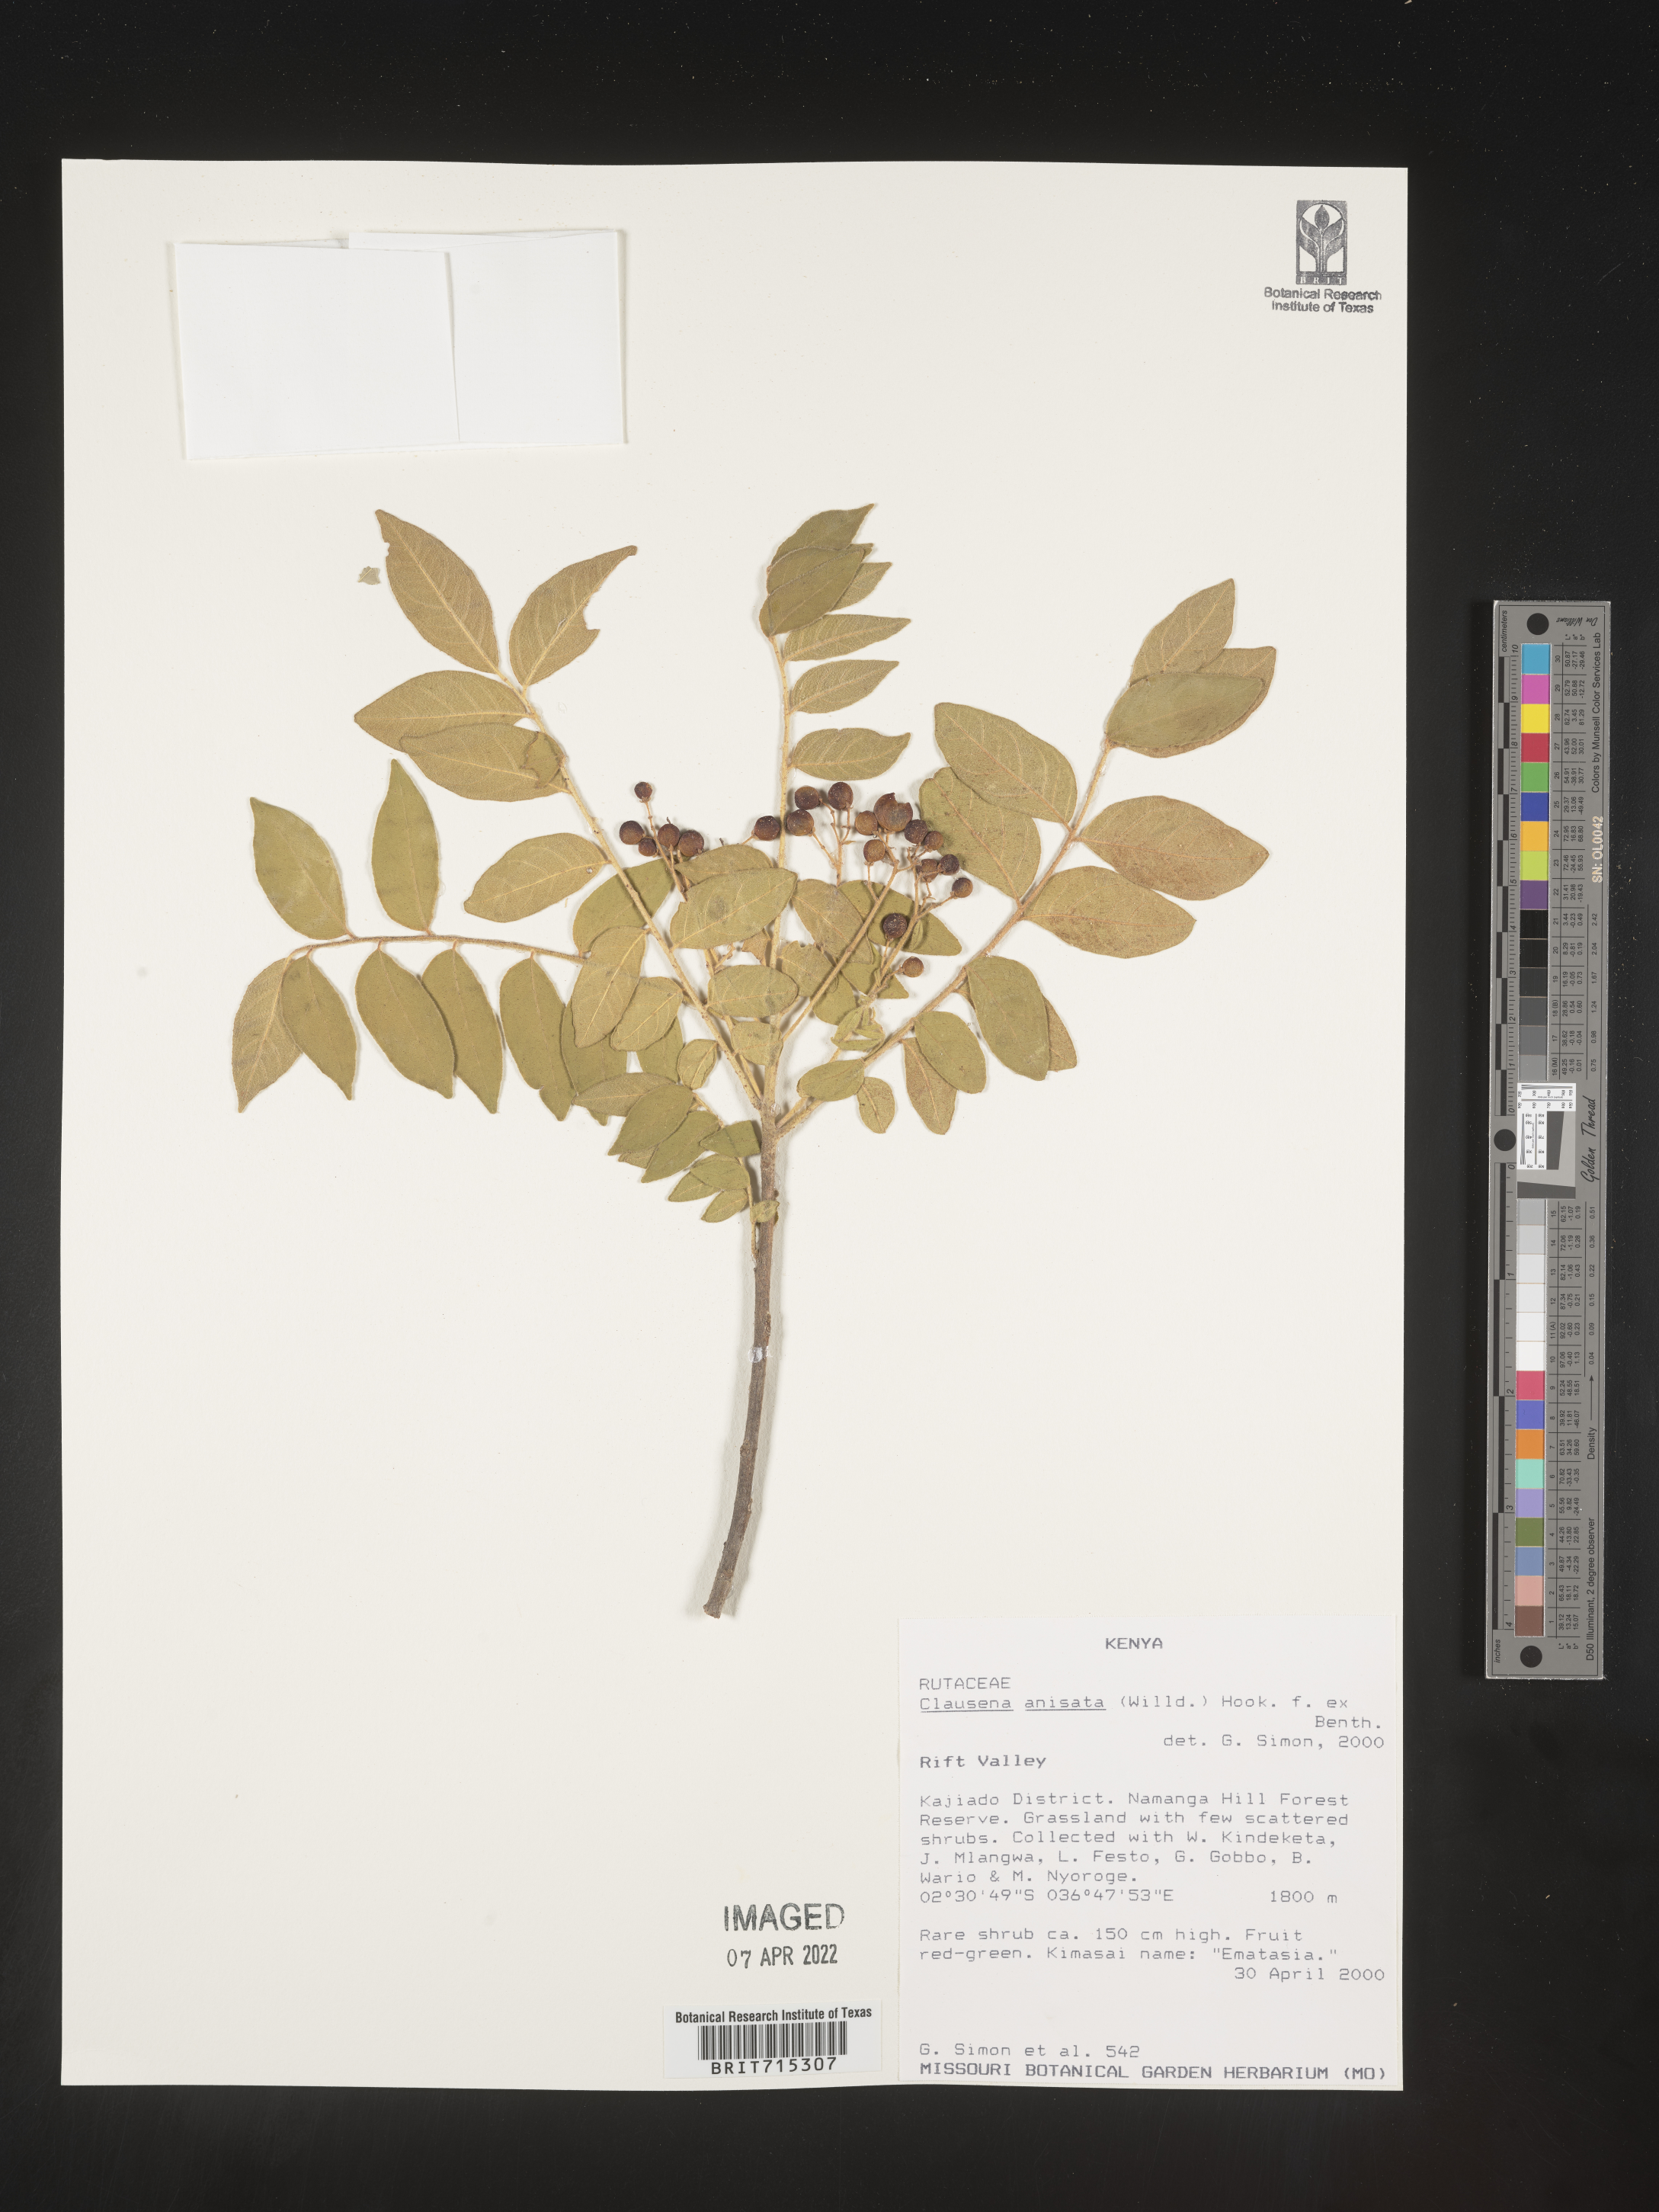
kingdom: Plantae
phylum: Tracheophyta
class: Magnoliopsida
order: Sapindales
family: Rutaceae
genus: Clausena
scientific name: Clausena
